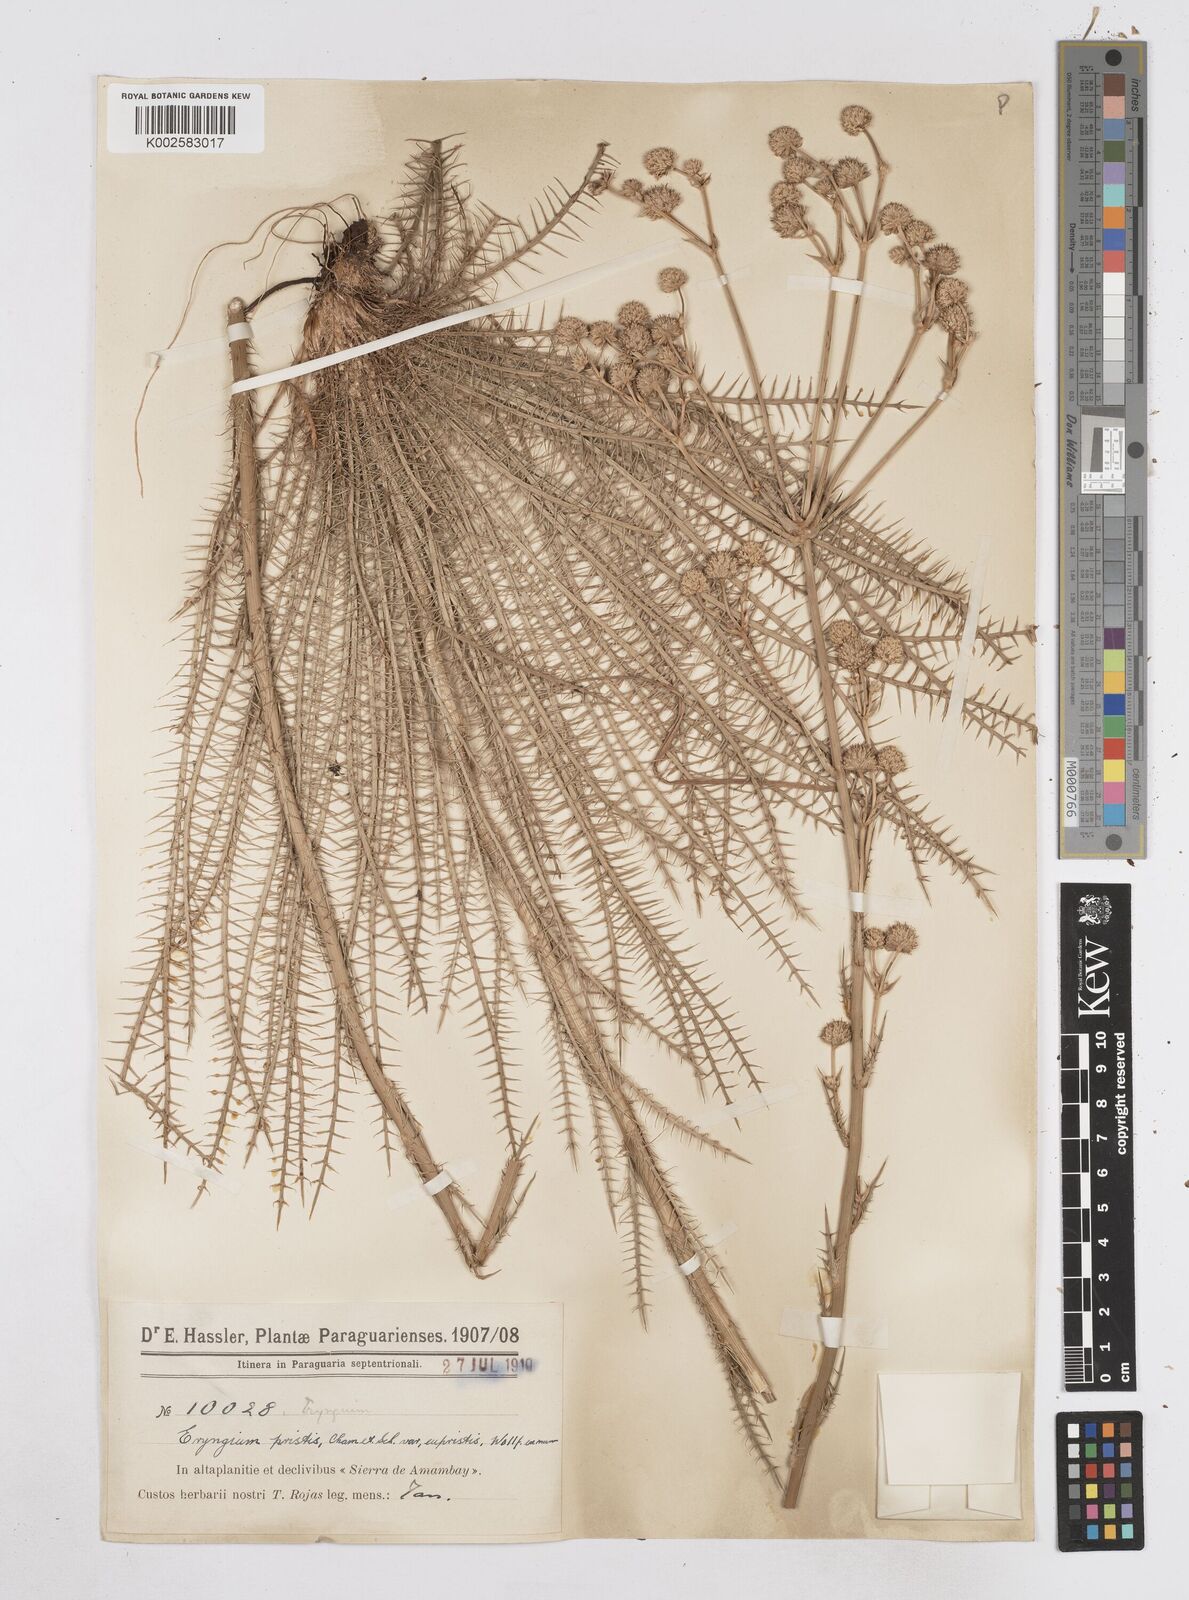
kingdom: Plantae
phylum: Tracheophyta
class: Magnoliopsida
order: Apiales
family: Apiaceae
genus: Eryngium
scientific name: Eryngium pristis
